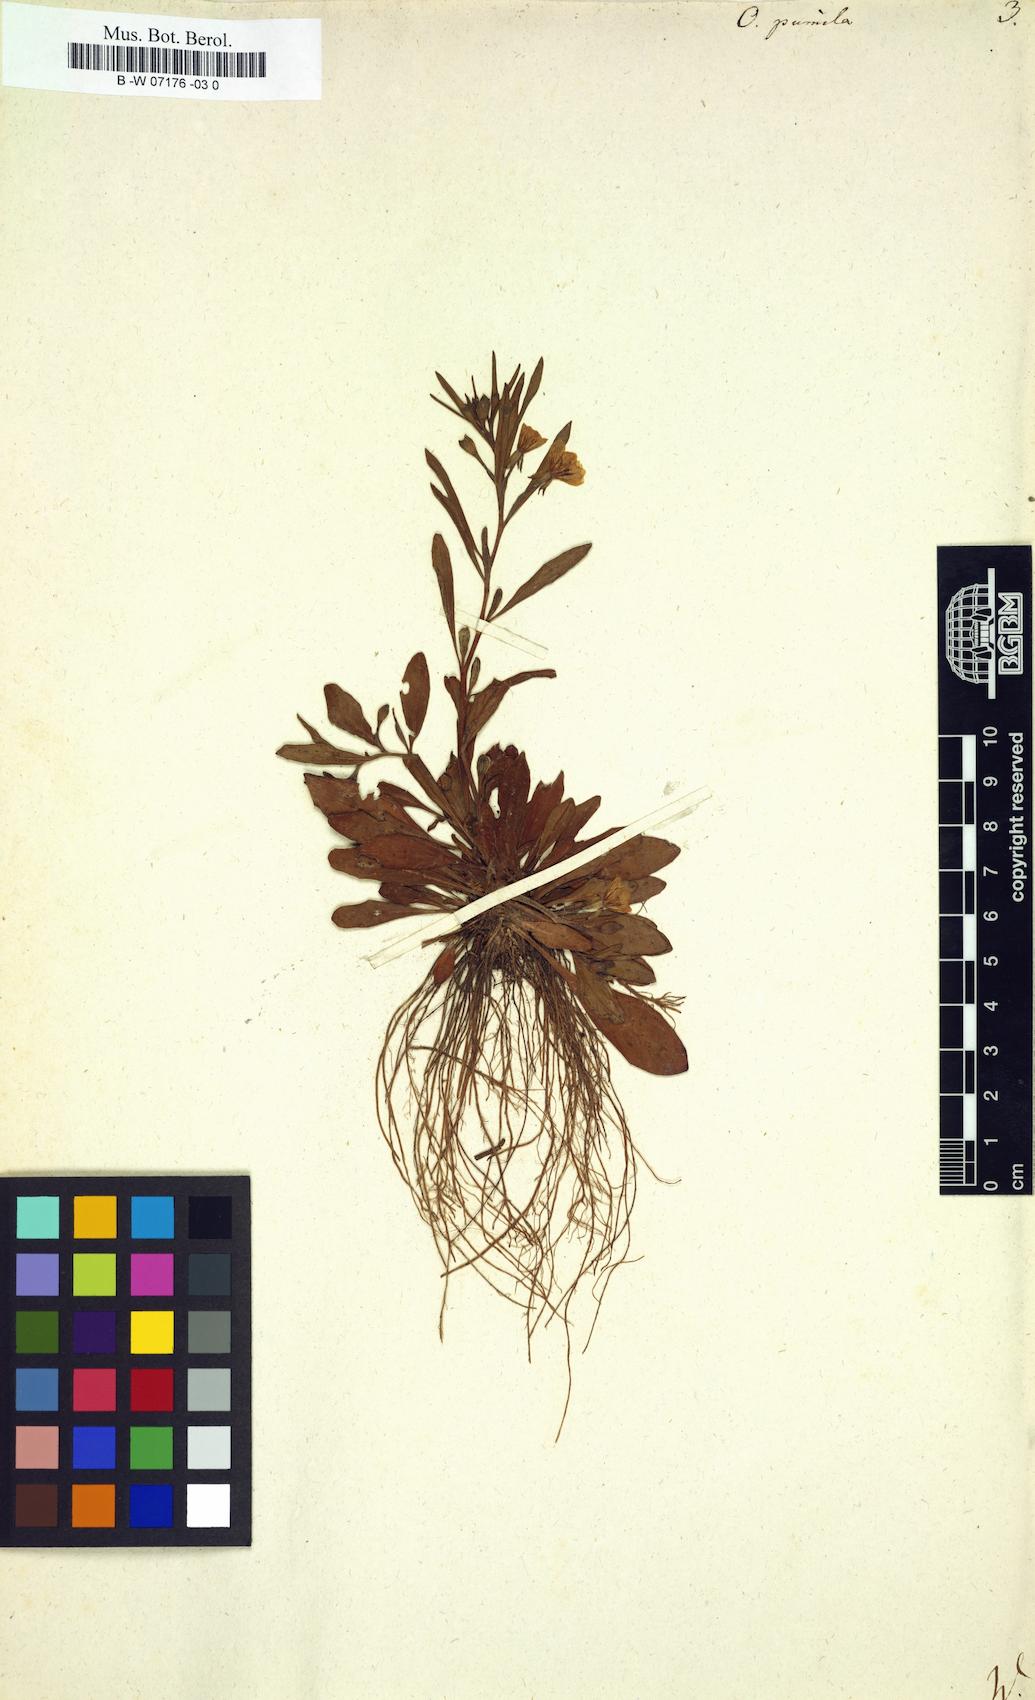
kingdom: Plantae
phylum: Tracheophyta
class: Magnoliopsida
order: Myrtales
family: Onagraceae
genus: Oenothera
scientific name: Oenothera perennis
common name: Small sundrops
